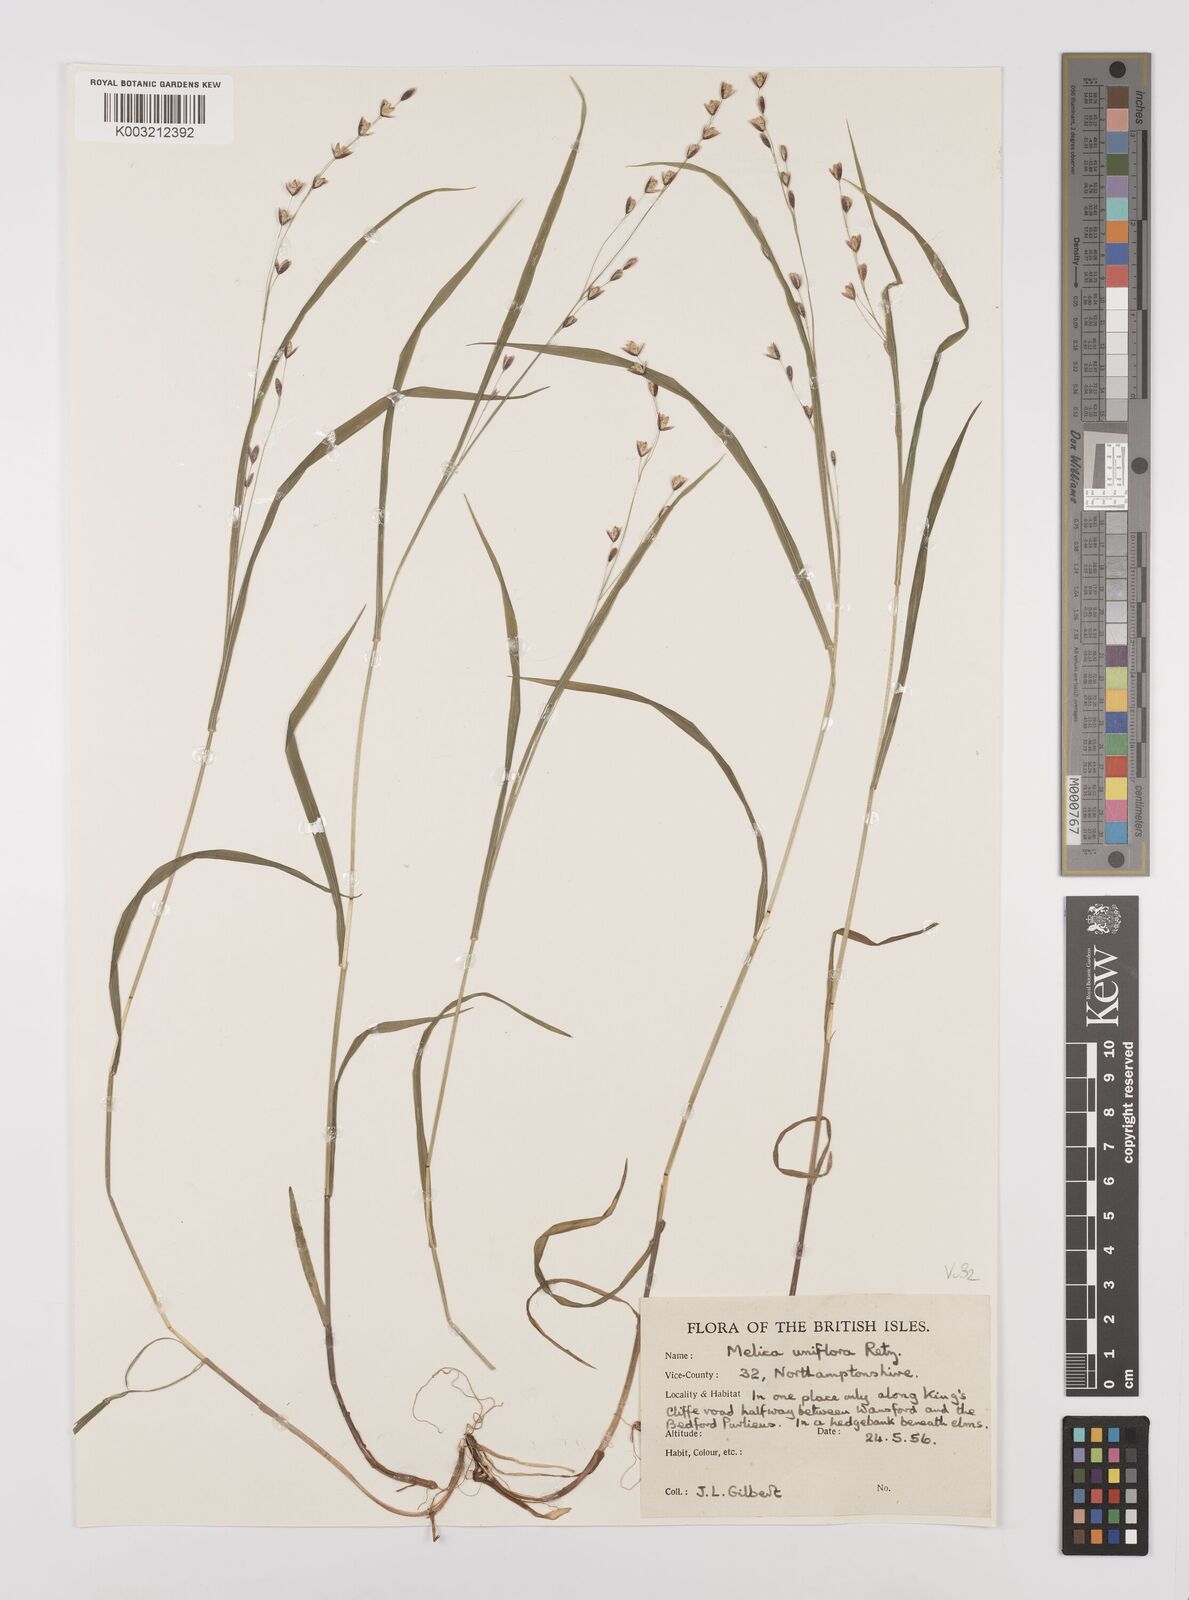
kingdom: Plantae
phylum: Tracheophyta
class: Liliopsida
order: Poales
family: Poaceae
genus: Melica
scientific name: Melica uniflora
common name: Wood melick
